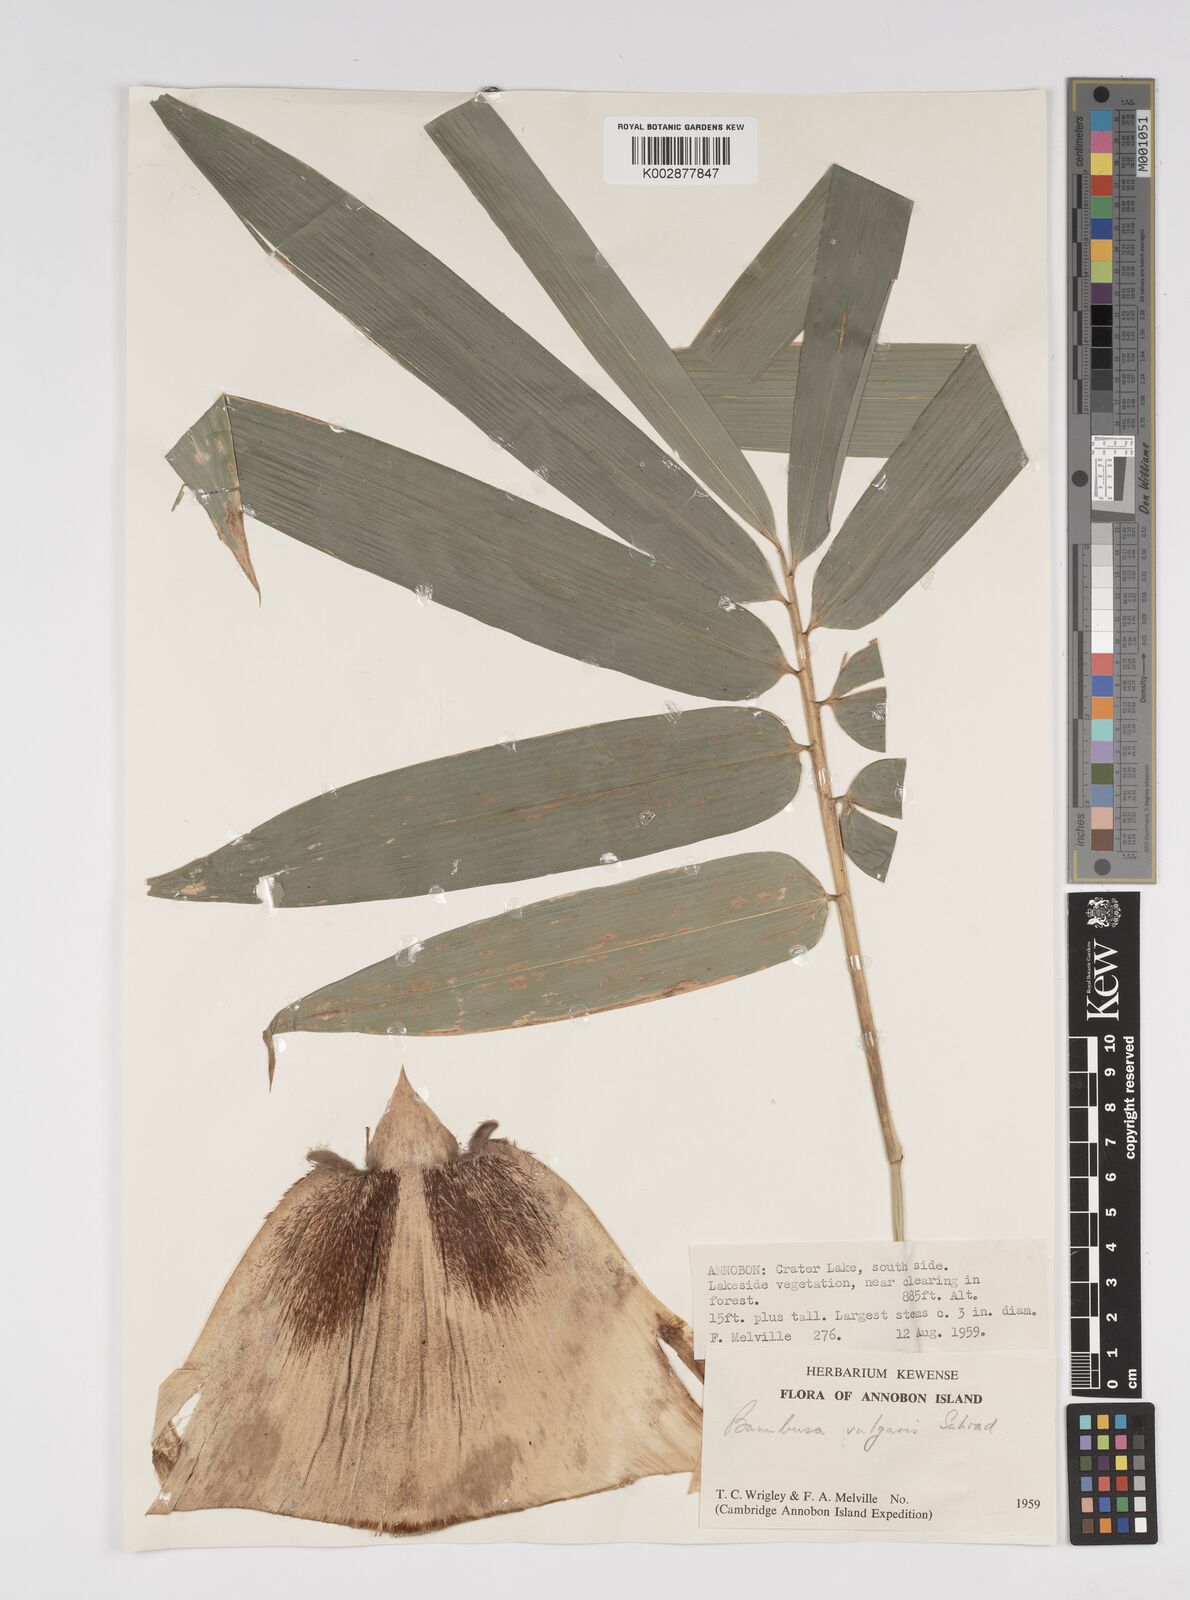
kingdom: Plantae
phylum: Tracheophyta
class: Liliopsida
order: Poales
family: Poaceae
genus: Bambusa
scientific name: Bambusa vulgaris
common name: Common bamboo
